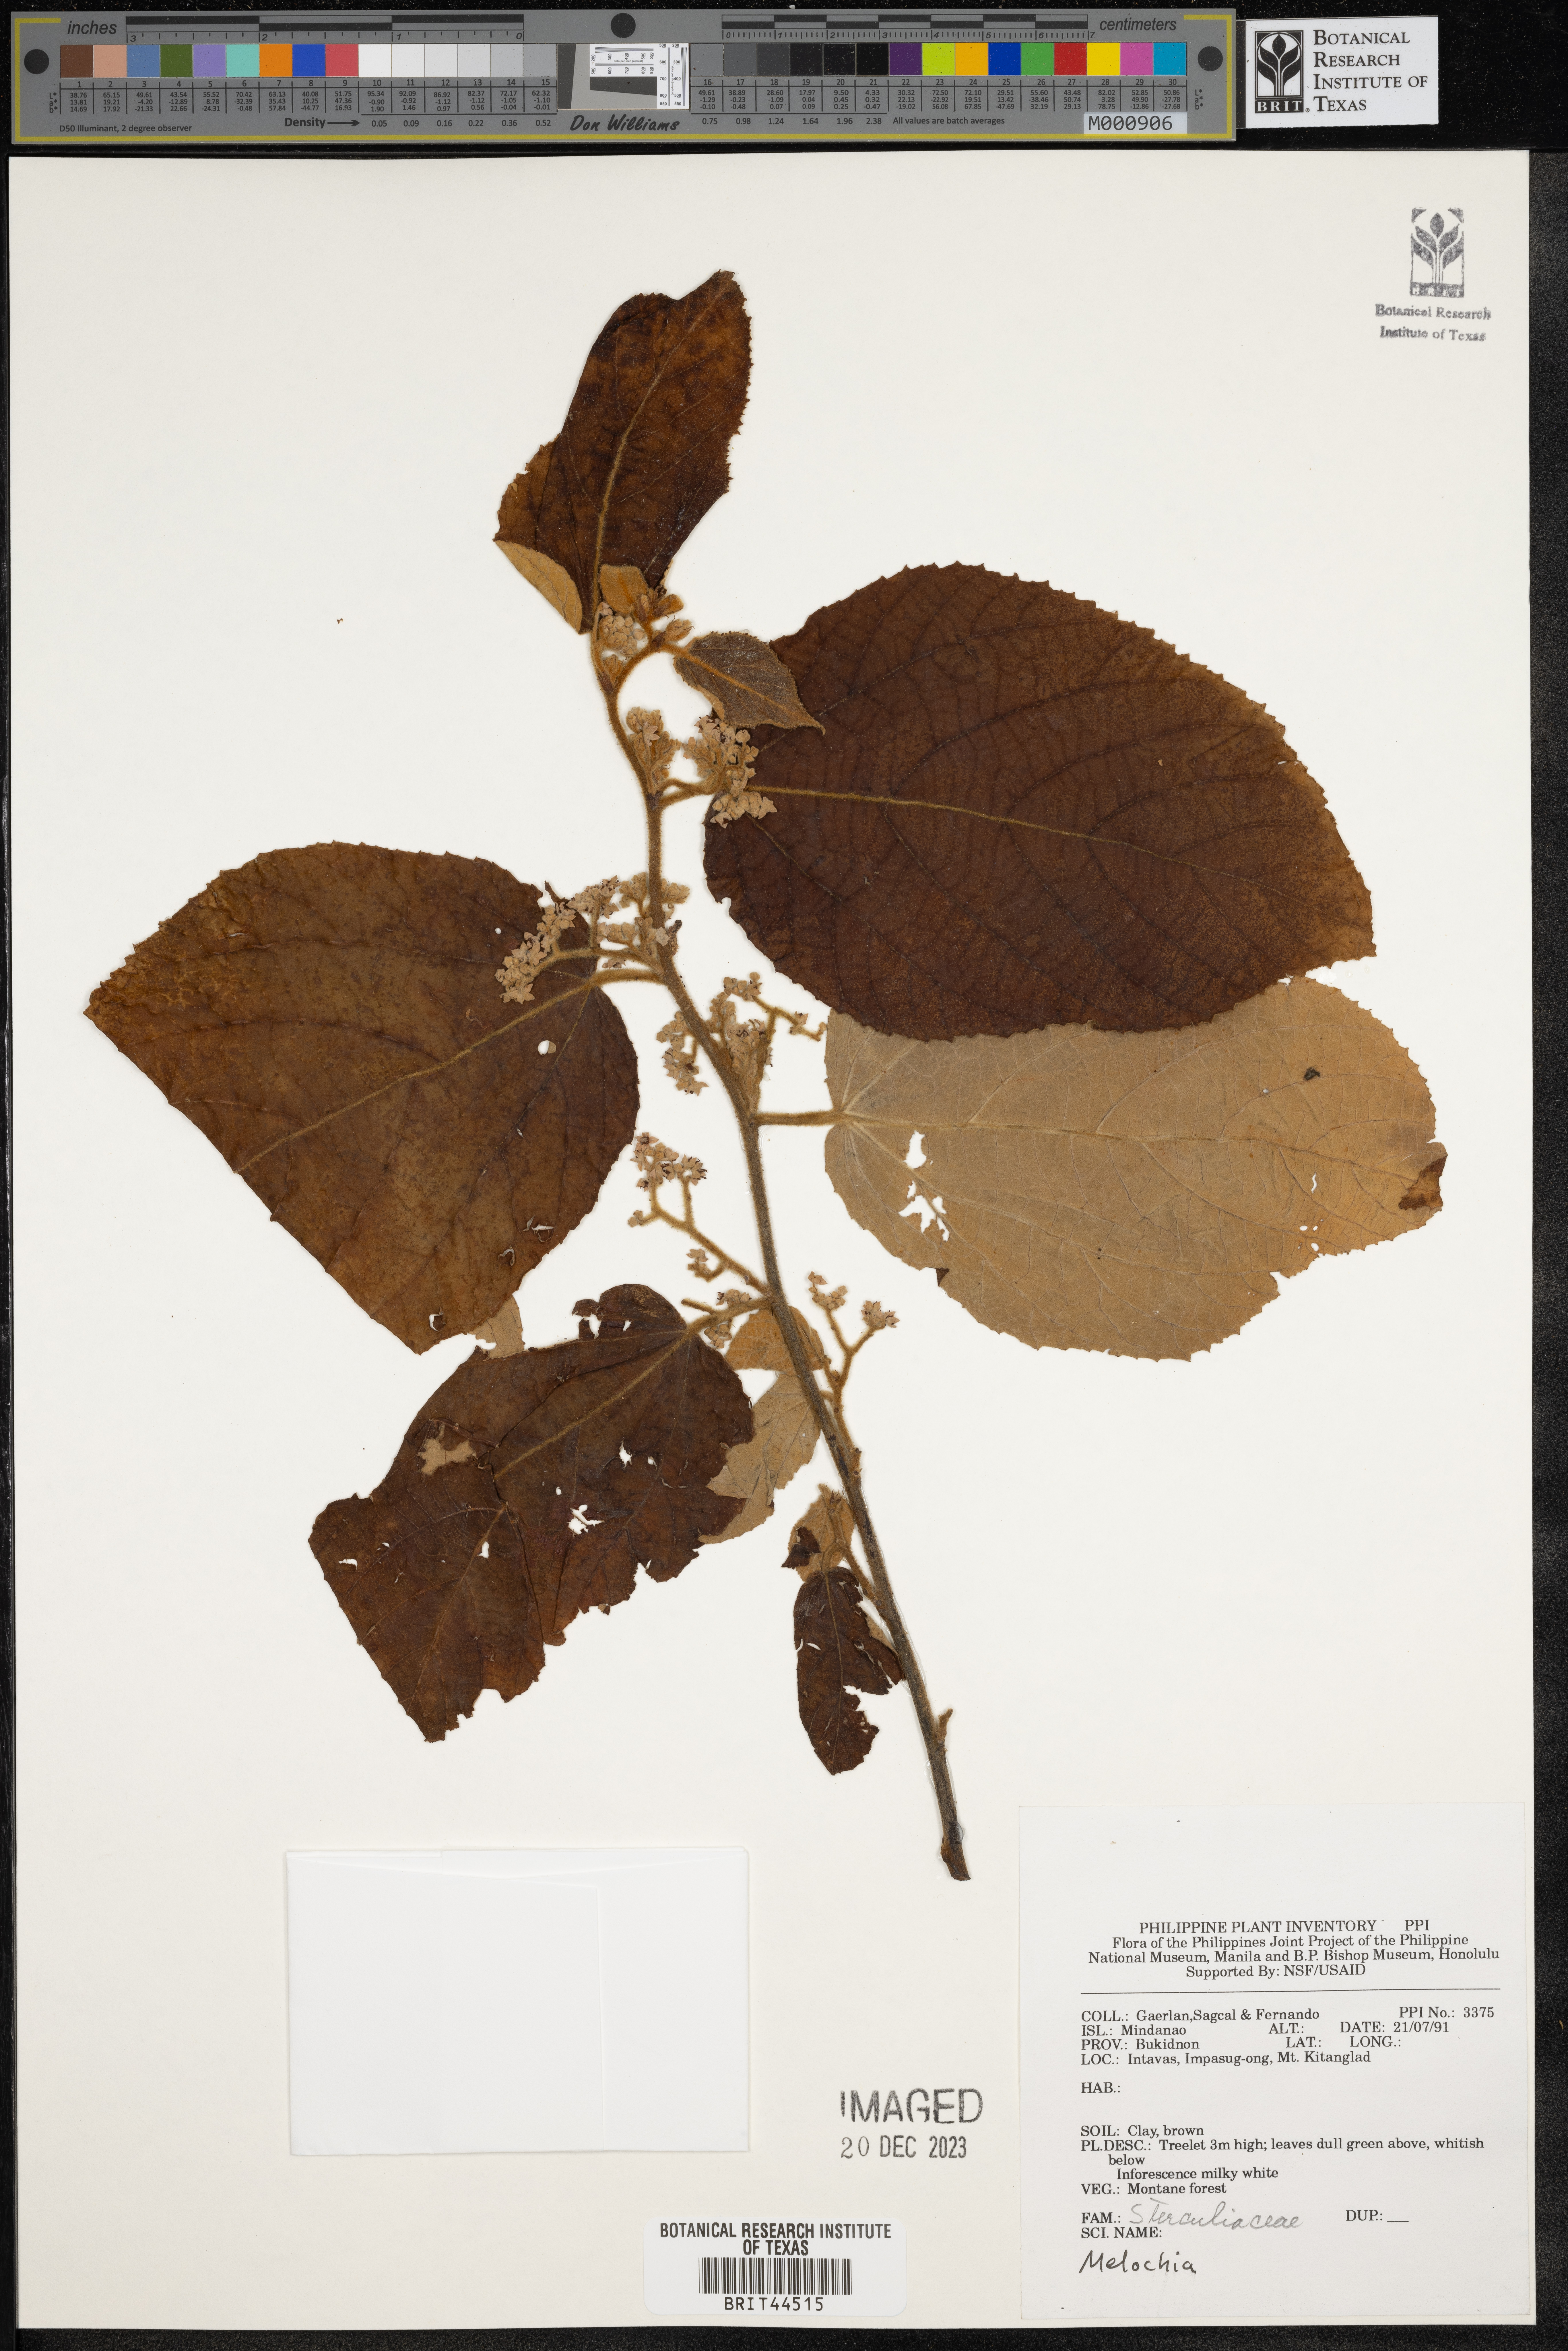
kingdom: Plantae
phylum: Tracheophyta
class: Magnoliopsida
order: Malvales
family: Malvaceae
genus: Melochia
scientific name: Melochia
